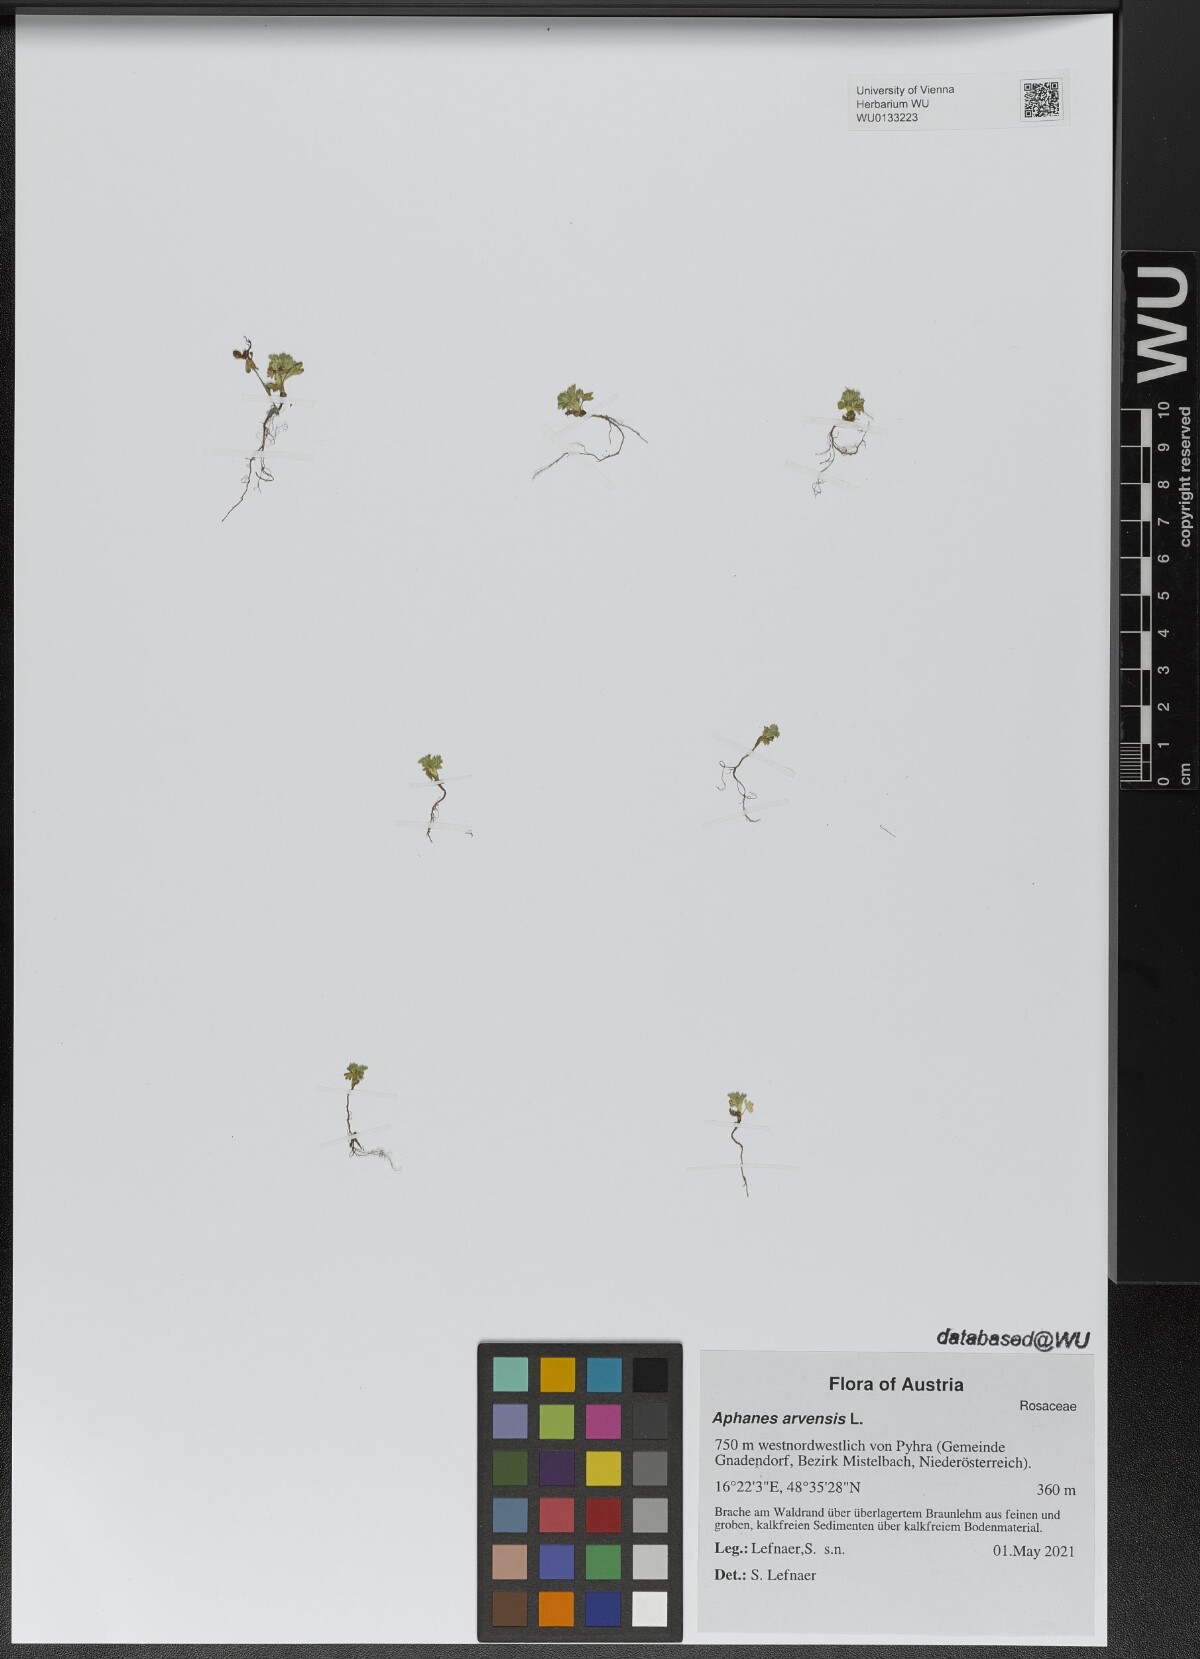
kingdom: Plantae
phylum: Tracheophyta
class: Magnoliopsida
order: Rosales
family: Rosaceae
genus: Aphanes
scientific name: Aphanes arvensis
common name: Parsley-piert
